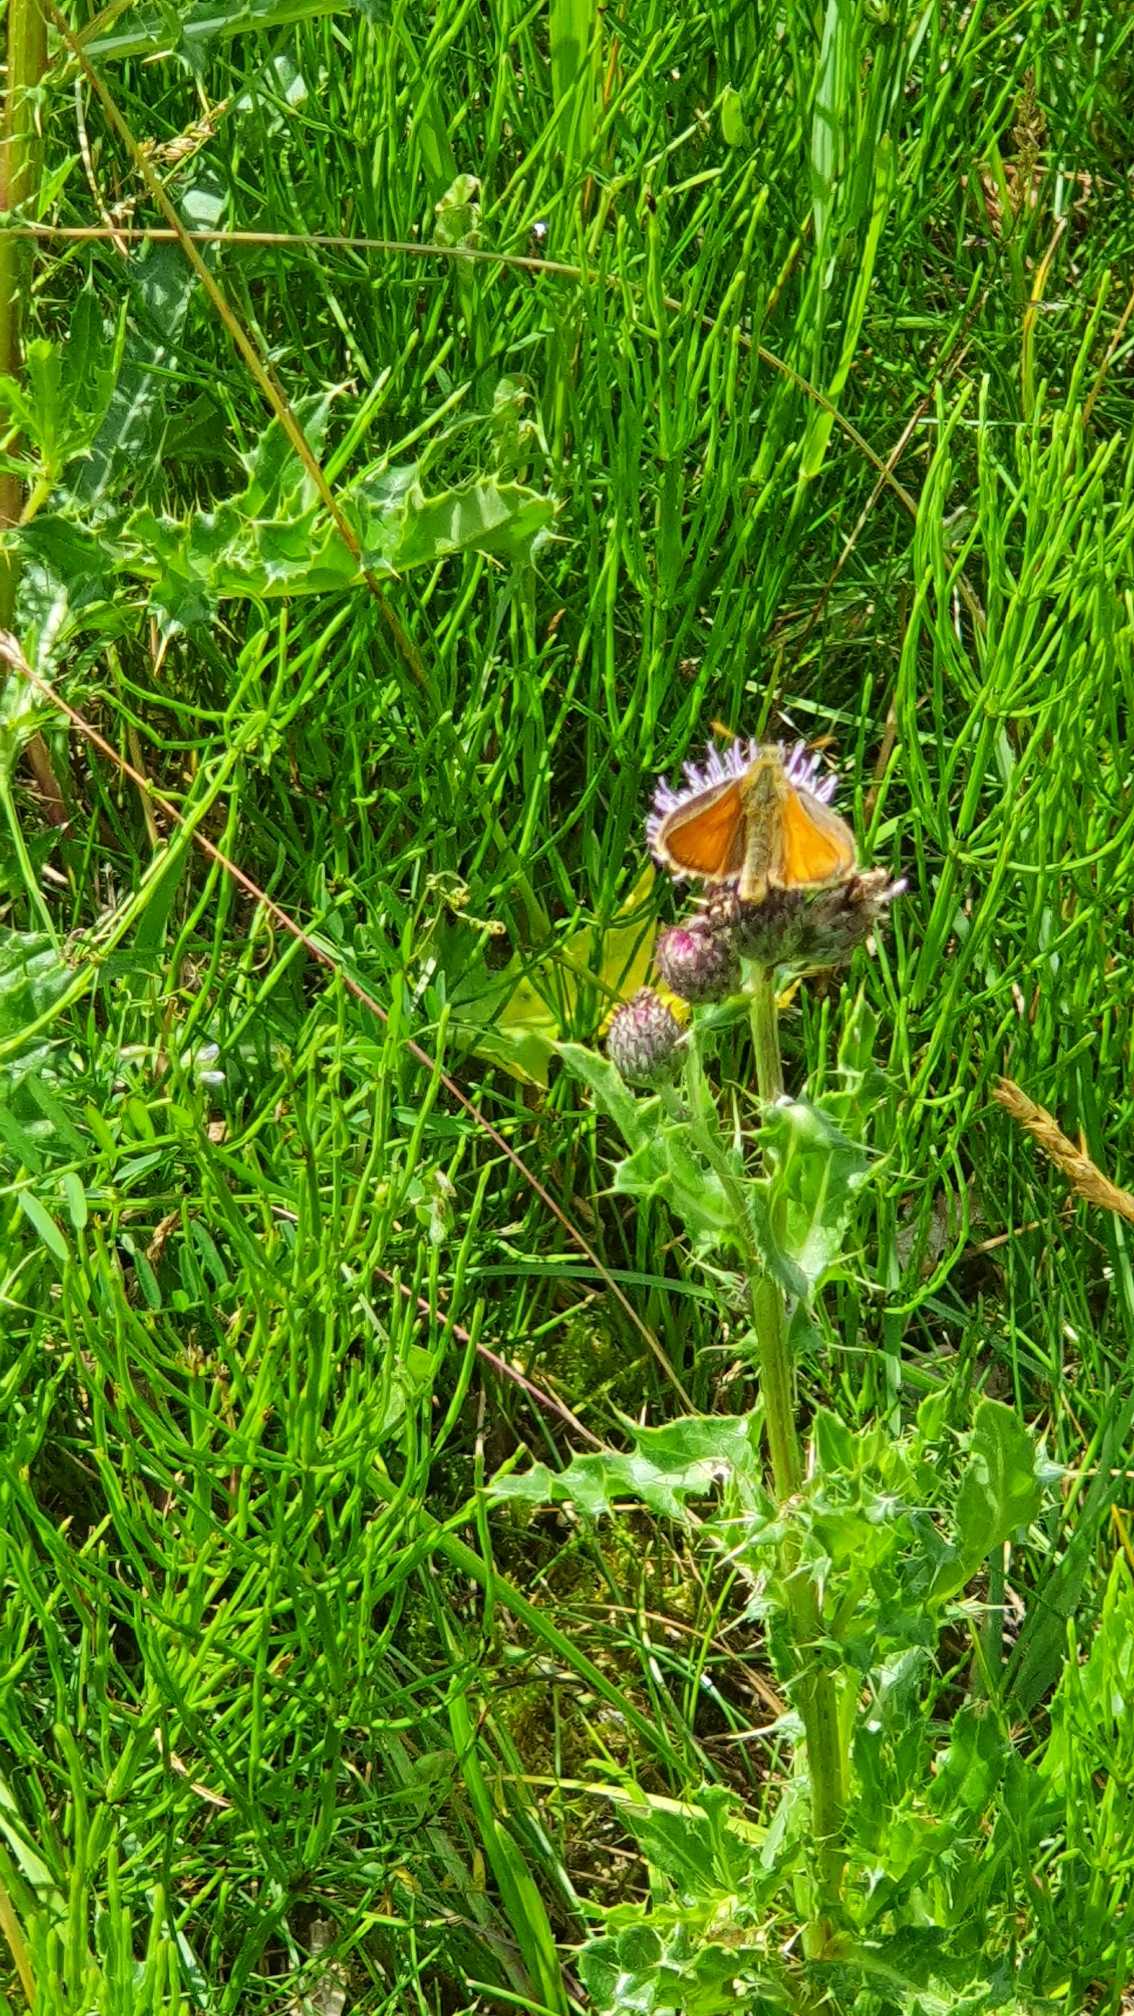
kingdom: Animalia
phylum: Arthropoda
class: Insecta
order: Lepidoptera
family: Hesperiidae
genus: Ochlodes
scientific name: Ochlodes venata
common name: Stor bredpande
